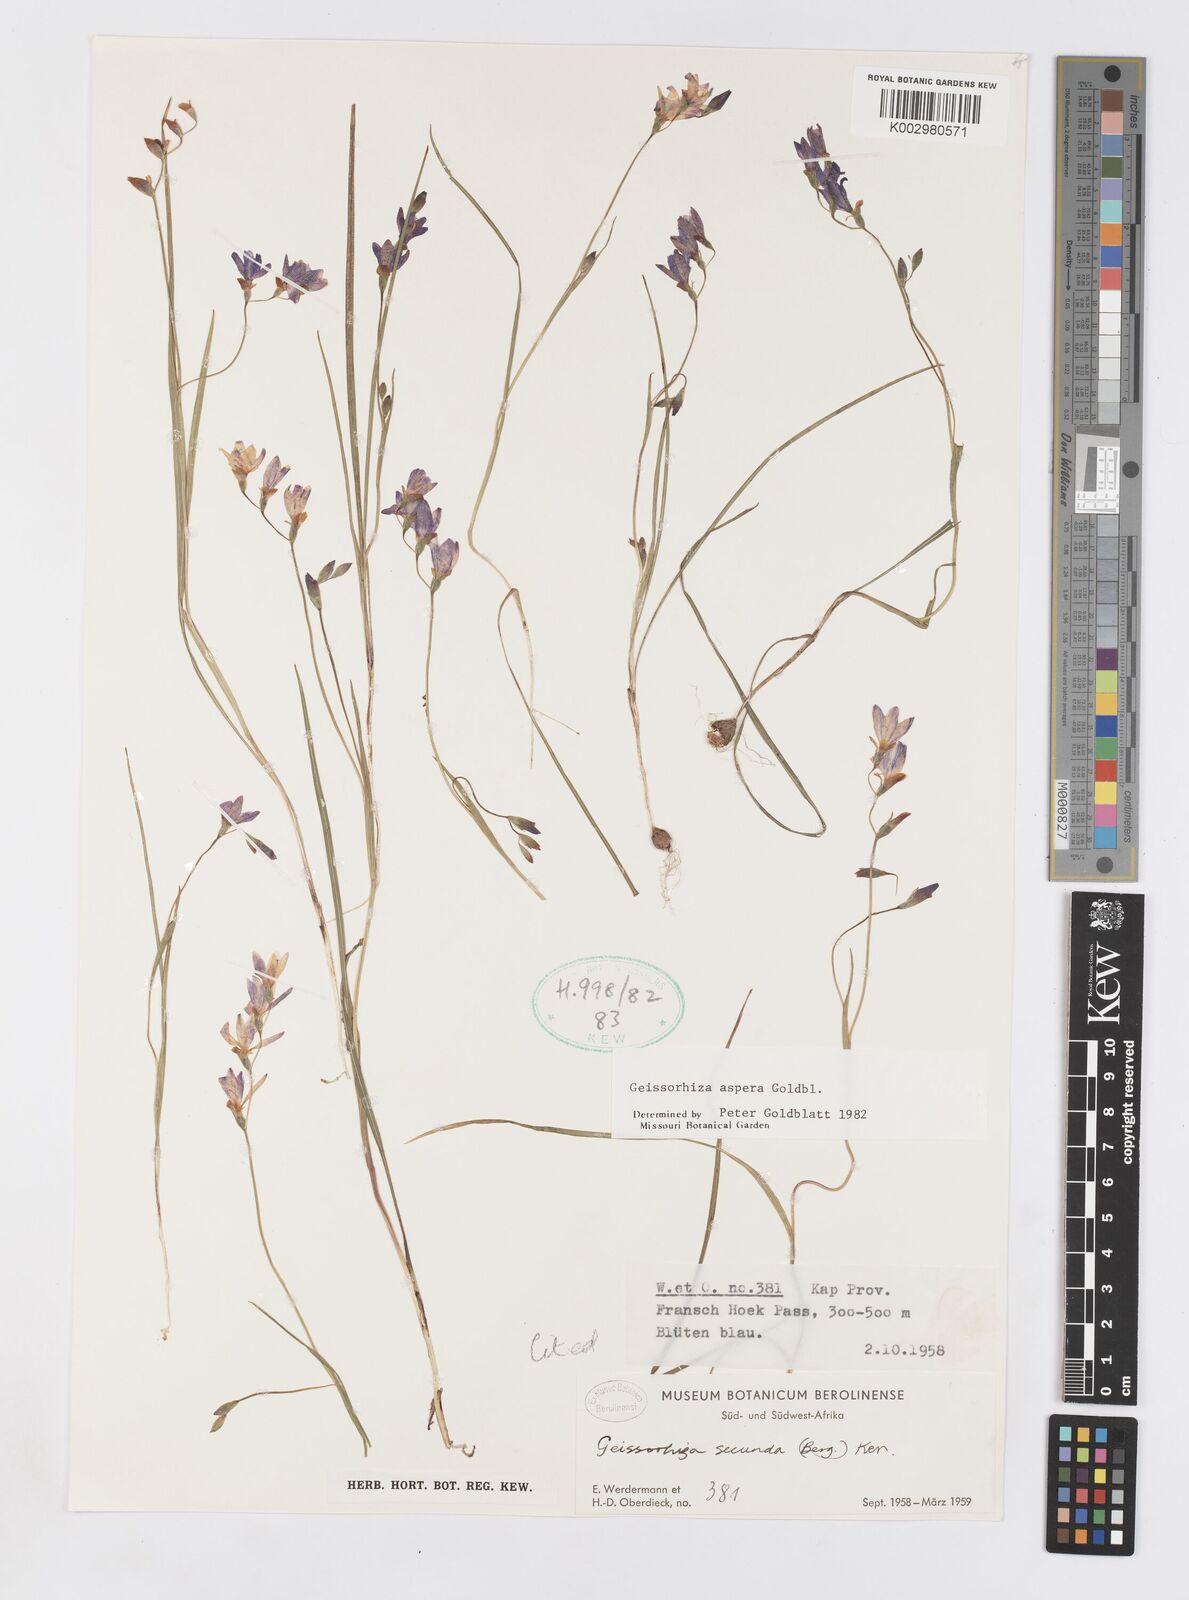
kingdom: Plantae
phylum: Tracheophyta
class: Liliopsida
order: Asparagales
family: Iridaceae
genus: Geissorhiza
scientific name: Geissorhiza aspera
